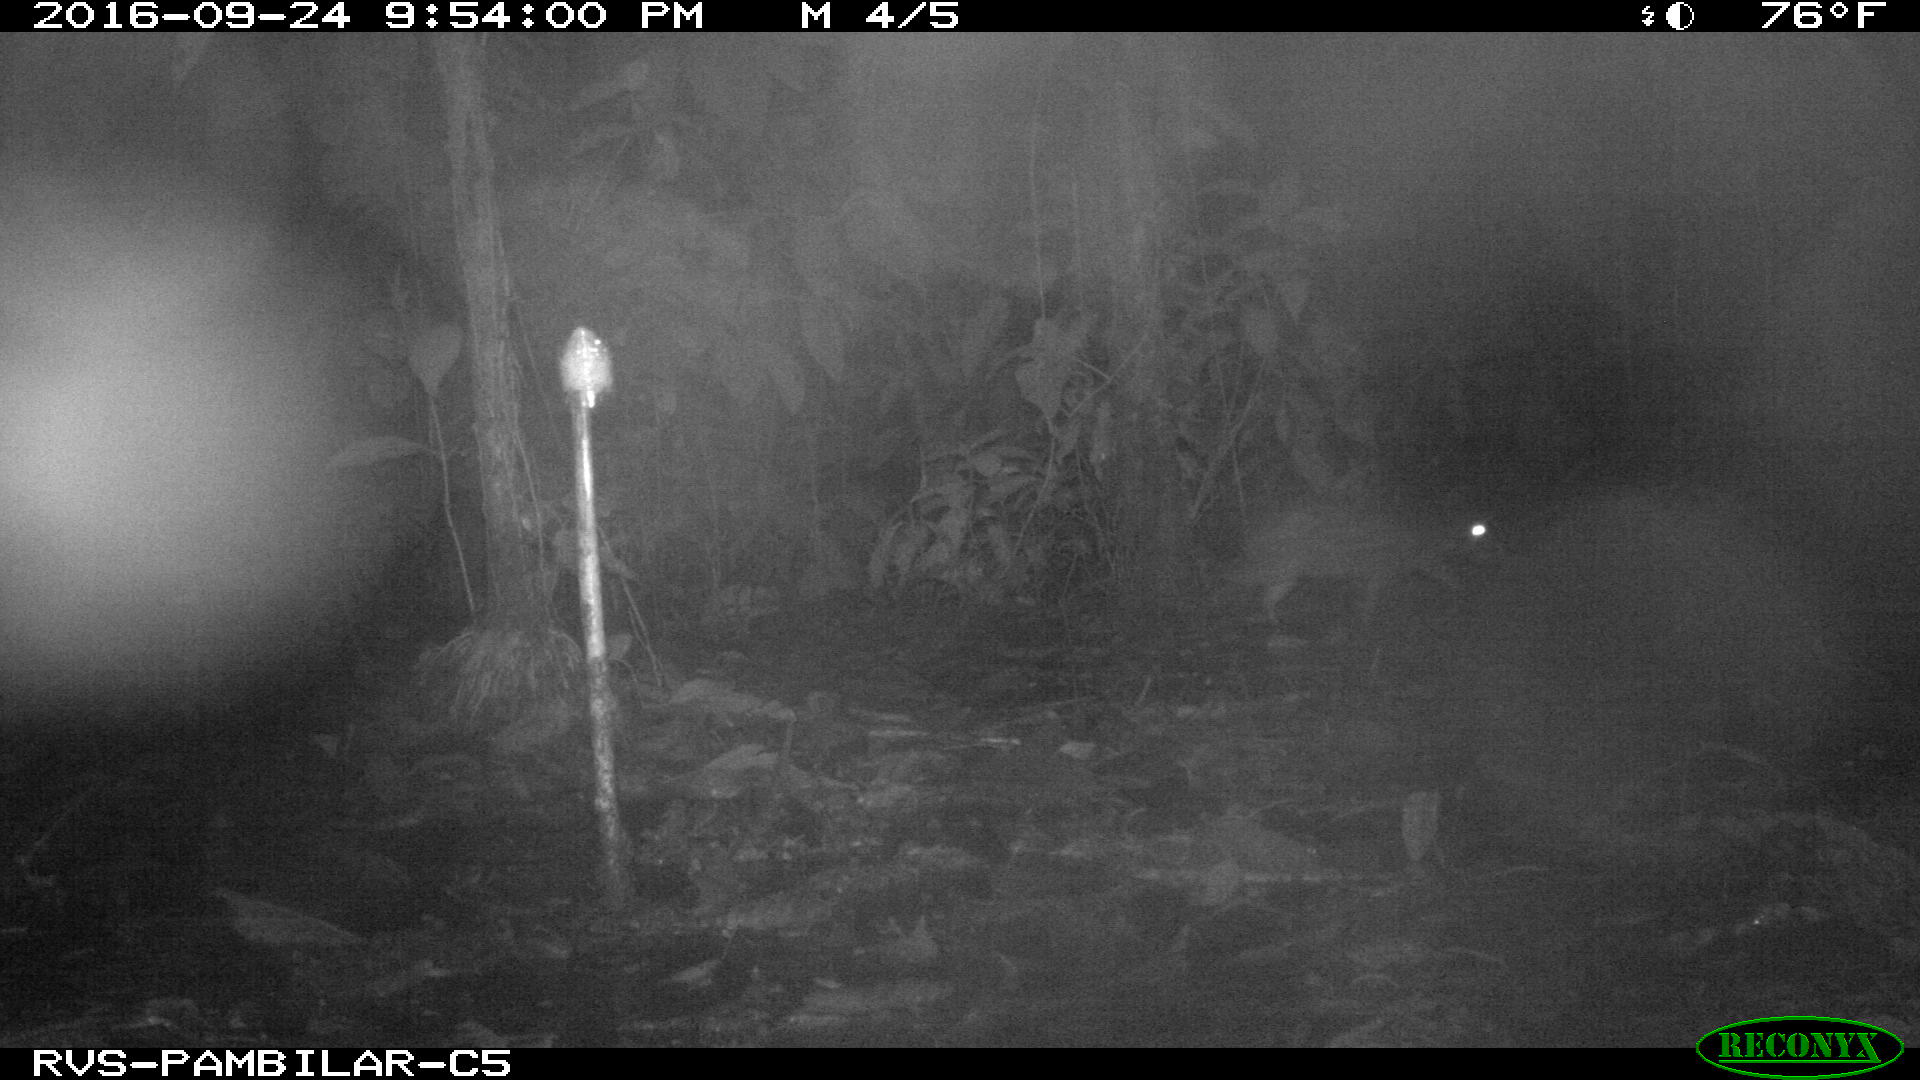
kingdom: Animalia
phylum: Chordata
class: Mammalia
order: Rodentia
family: Cuniculidae
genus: Cuniculus
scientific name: Cuniculus paca
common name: Lowland paca
